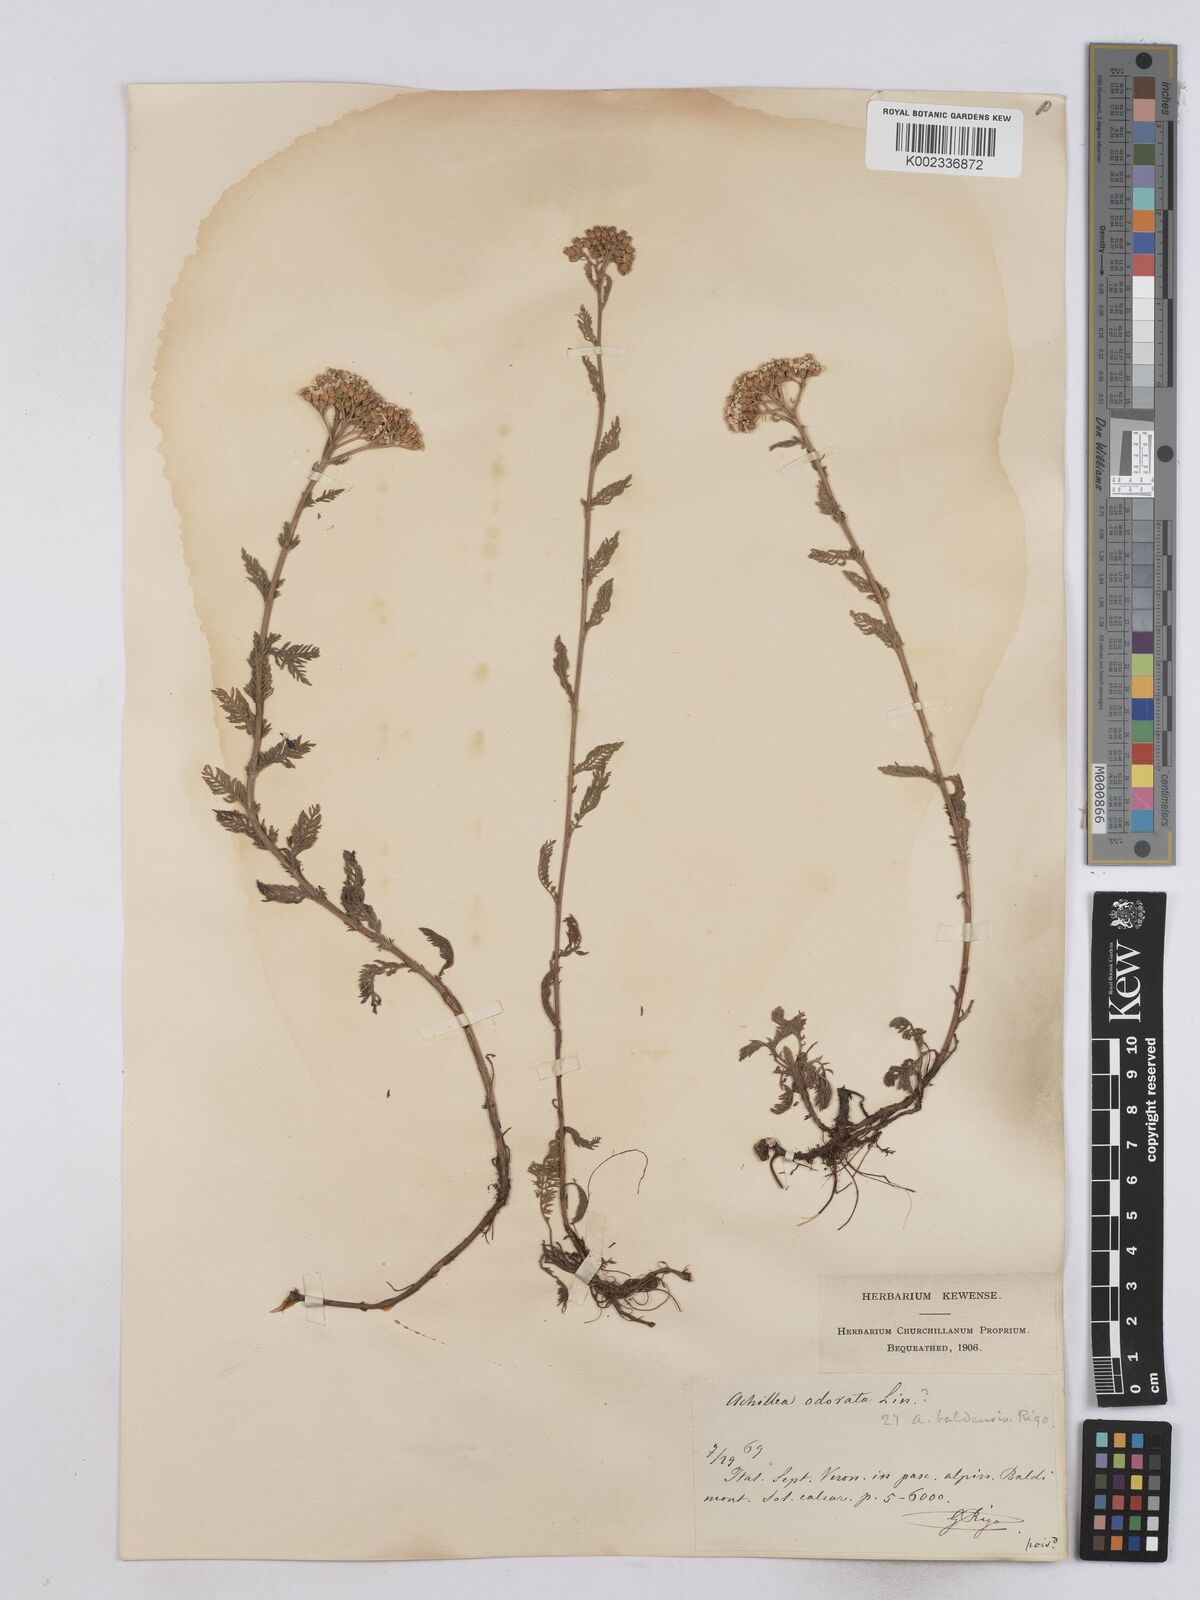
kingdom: Plantae
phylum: Tracheophyta
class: Magnoliopsida
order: Asterales
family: Asteraceae
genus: Achillea
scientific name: Achillea odorata
